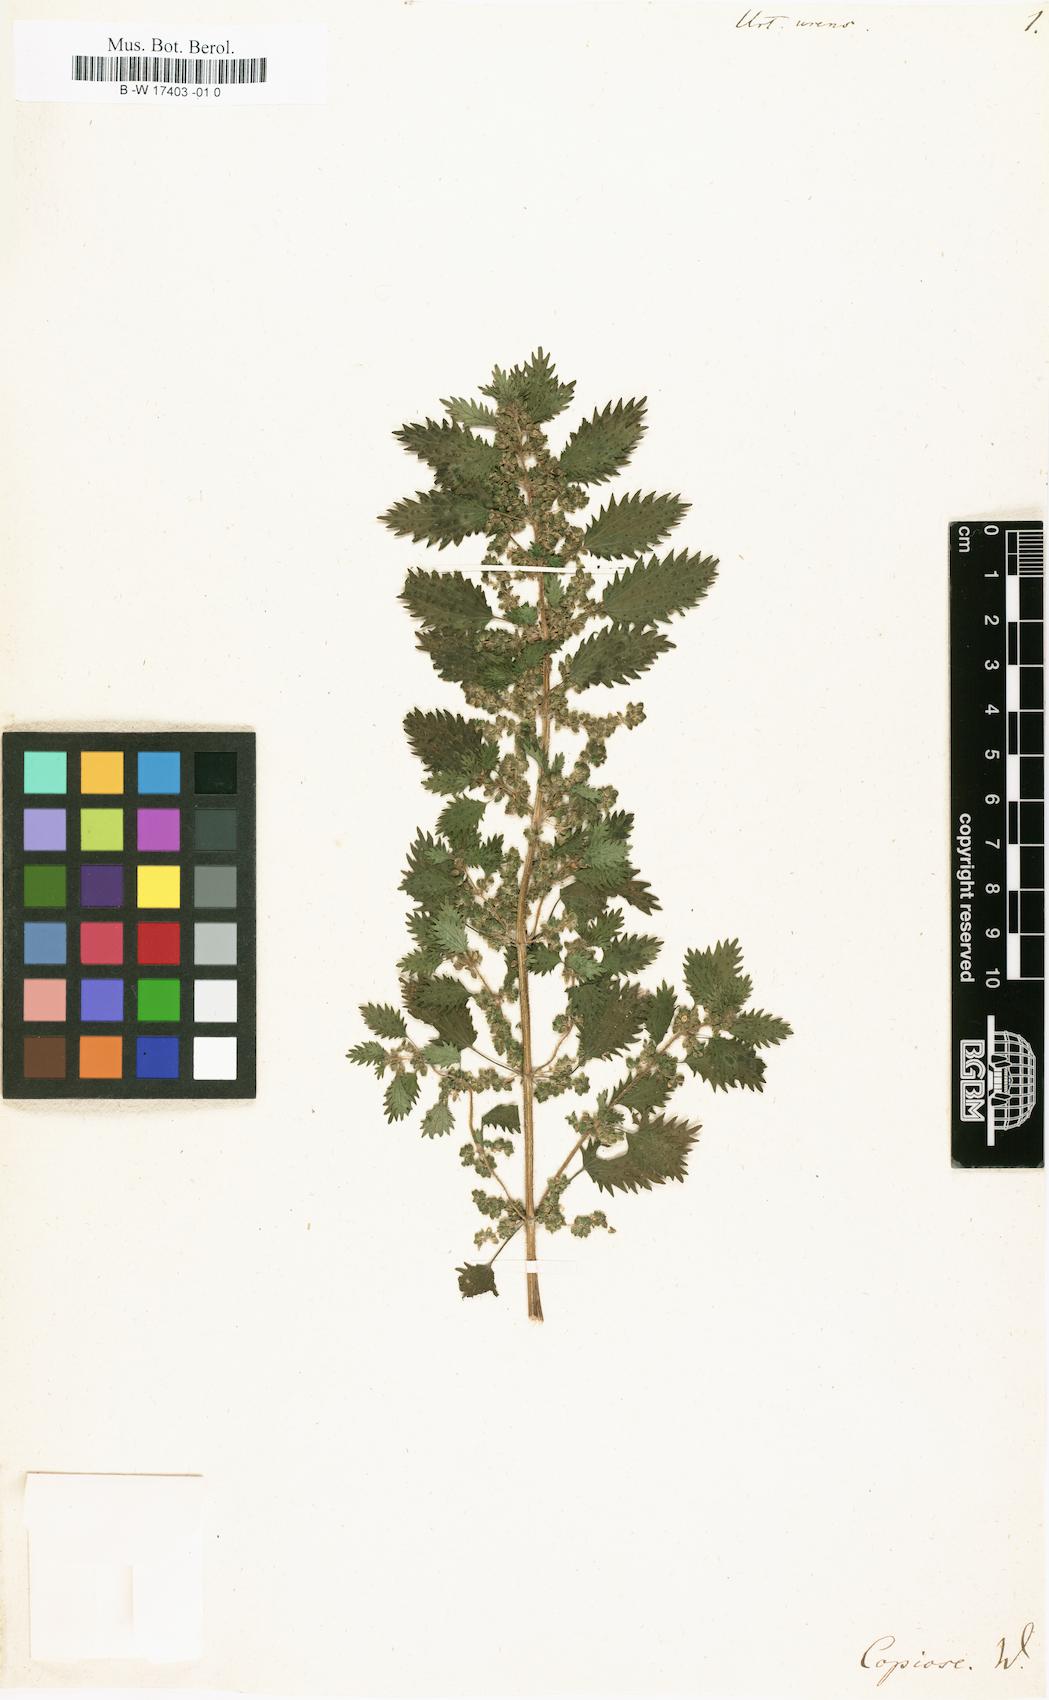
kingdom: Plantae
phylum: Tracheophyta
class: Magnoliopsida
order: Rosales
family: Urticaceae
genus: Urtica
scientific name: Urtica urens
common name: Dwarf nettle
